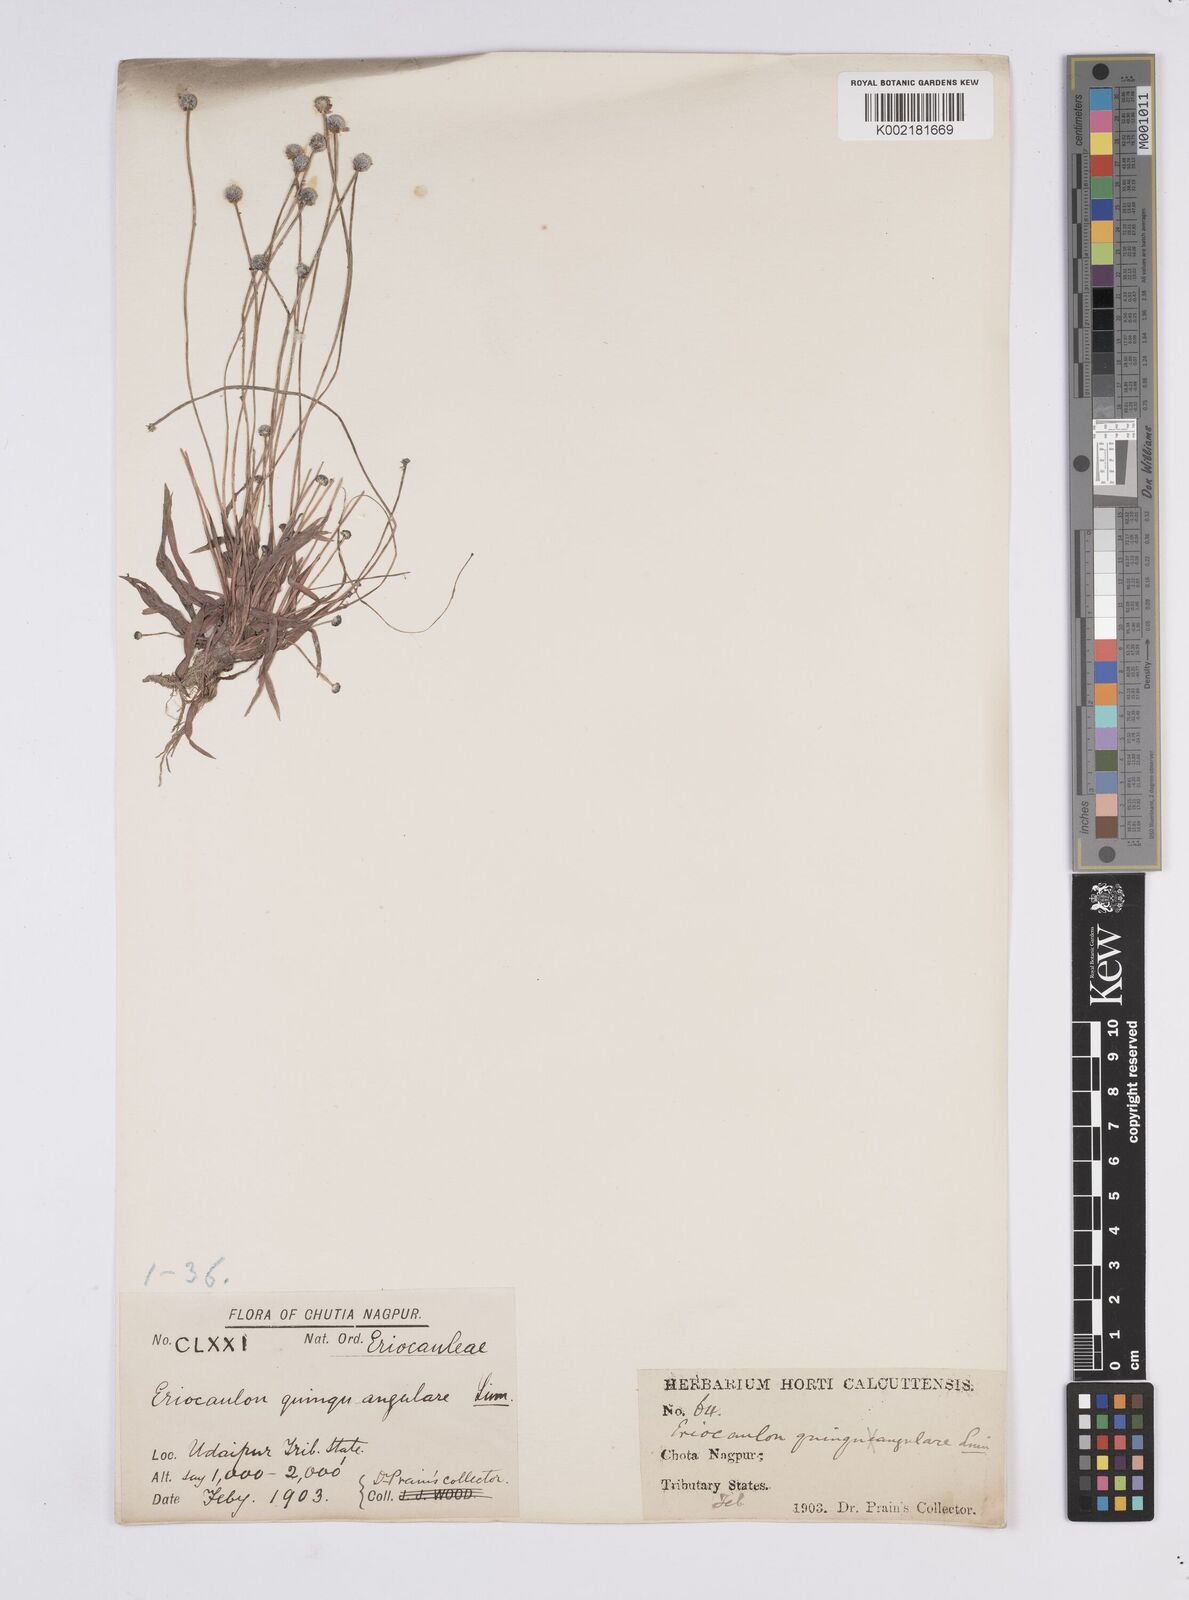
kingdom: Plantae
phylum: Tracheophyta
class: Liliopsida
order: Poales
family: Eriocaulaceae
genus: Eriocaulon
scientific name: Eriocaulon quinquangulare
